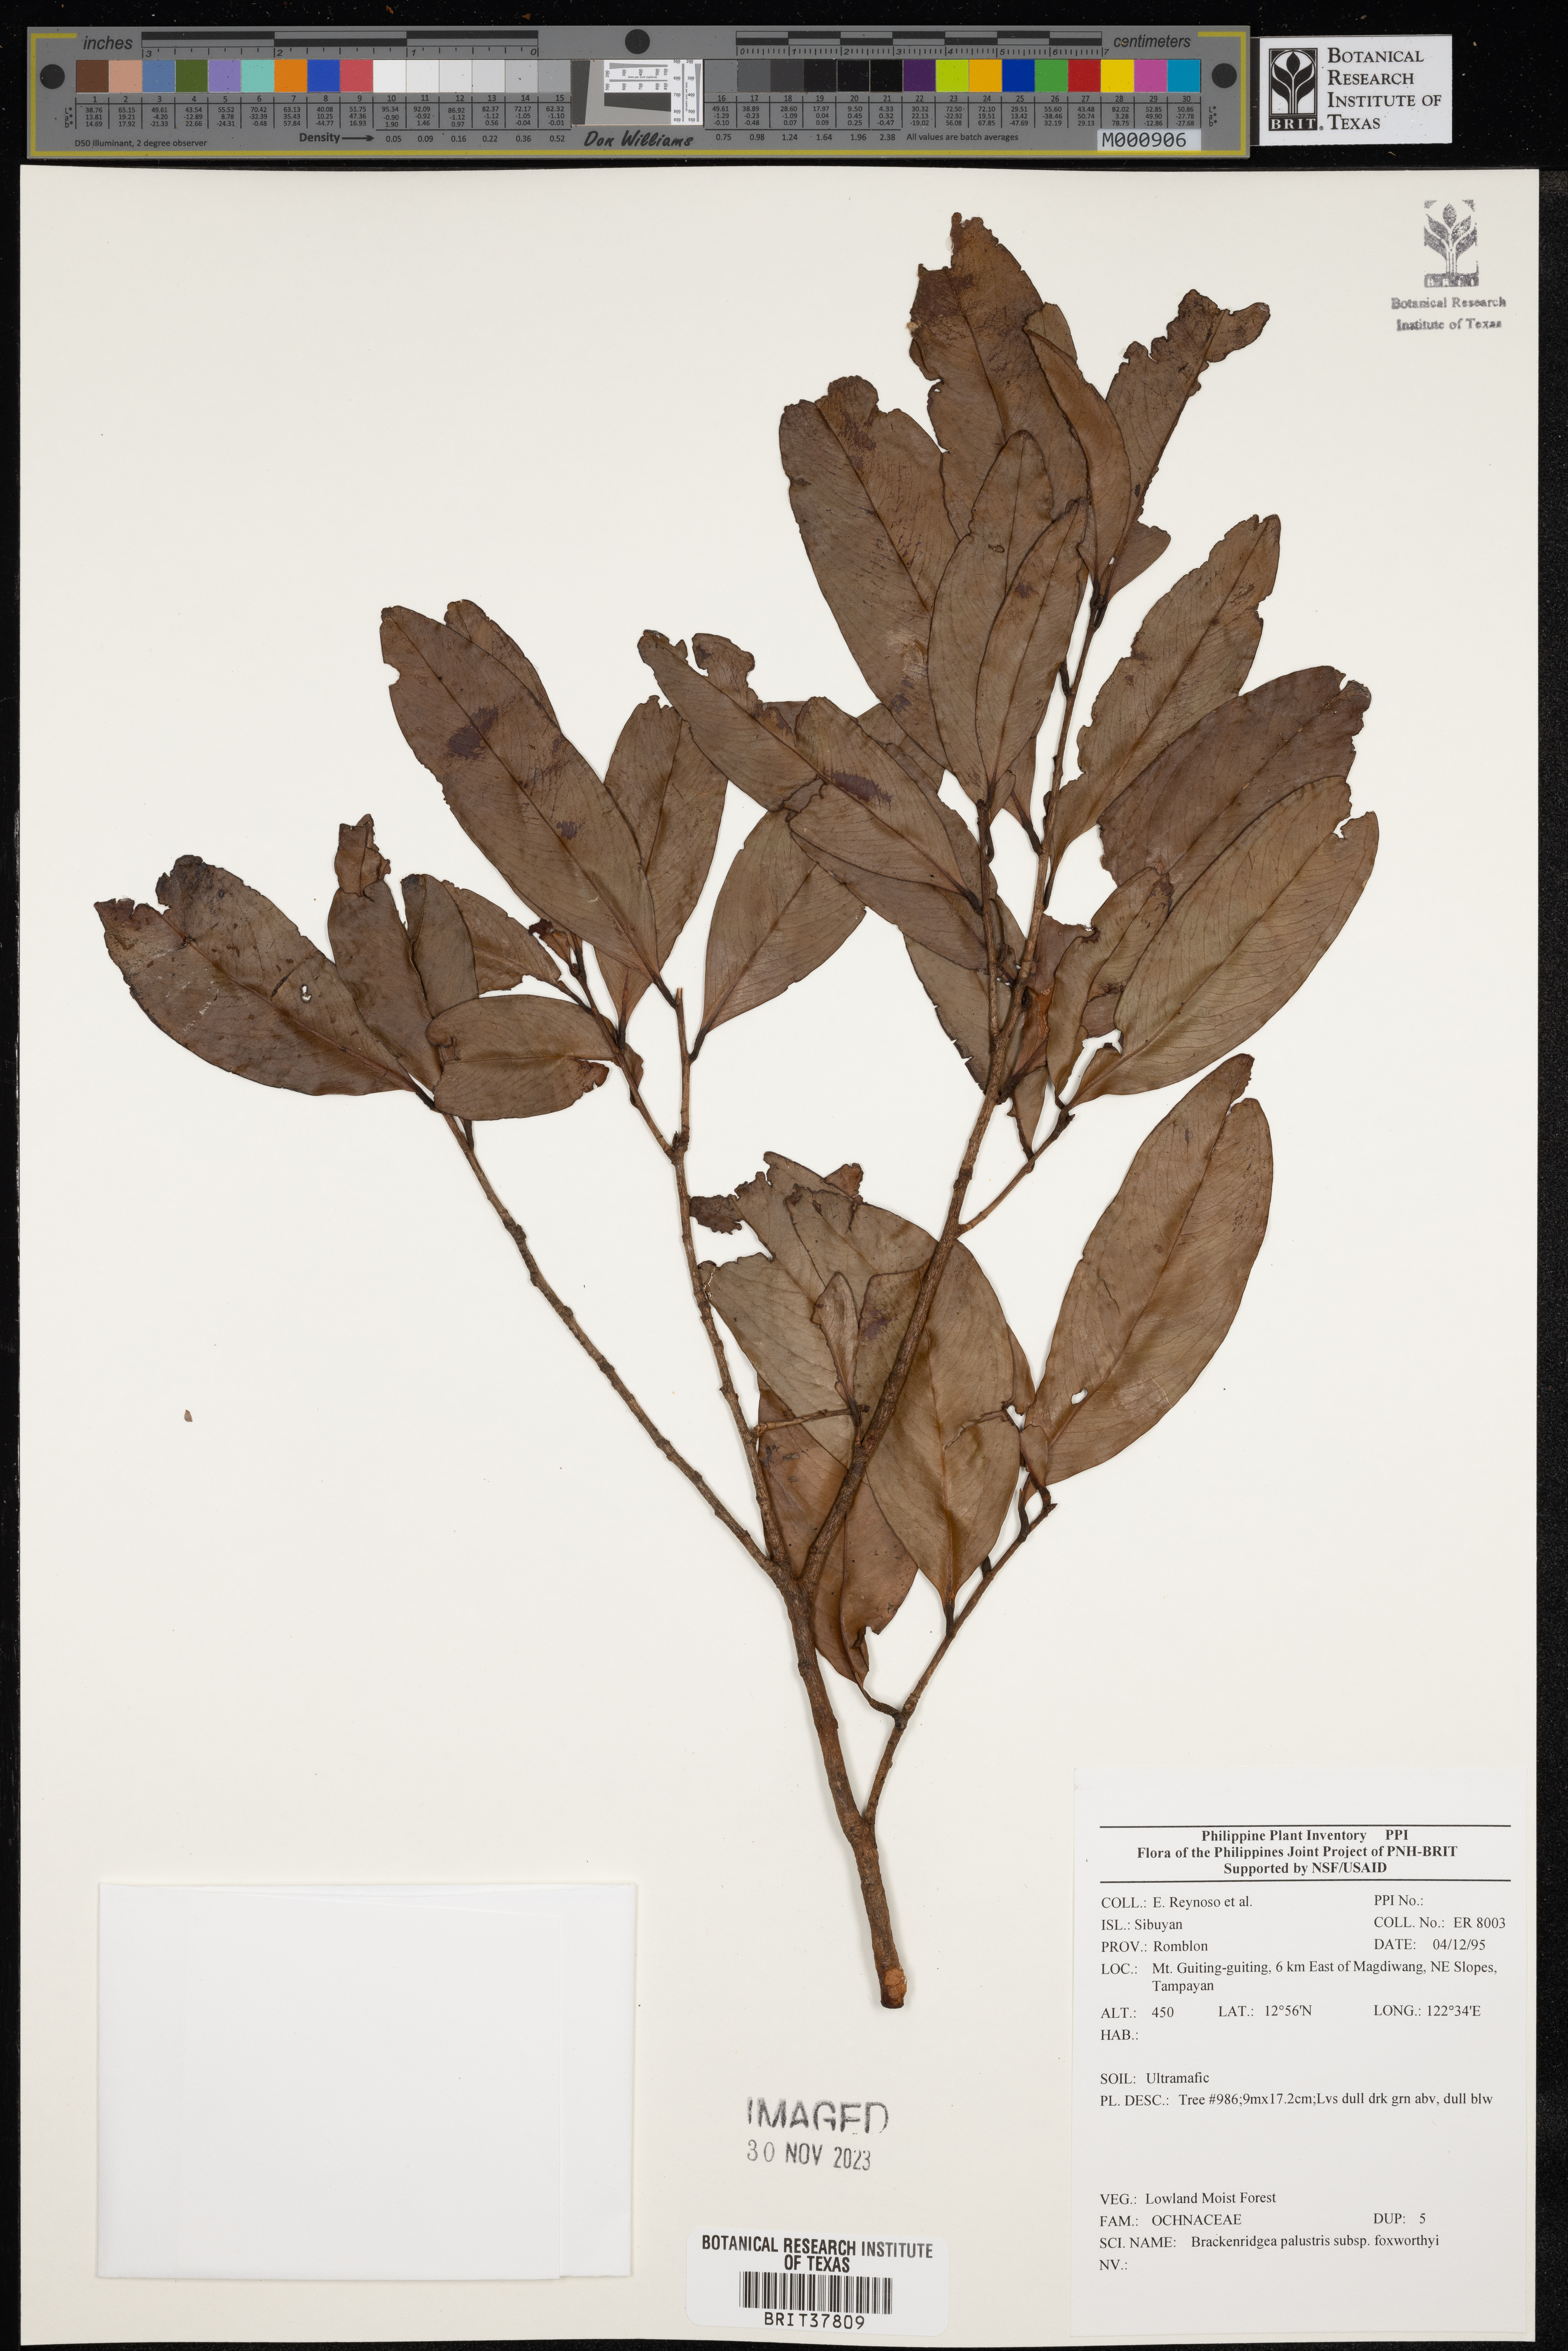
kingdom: Plantae
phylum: Tracheophyta
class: Magnoliopsida
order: Malpighiales
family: Ochnaceae
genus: Brackenridgea
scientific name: Brackenridgea
